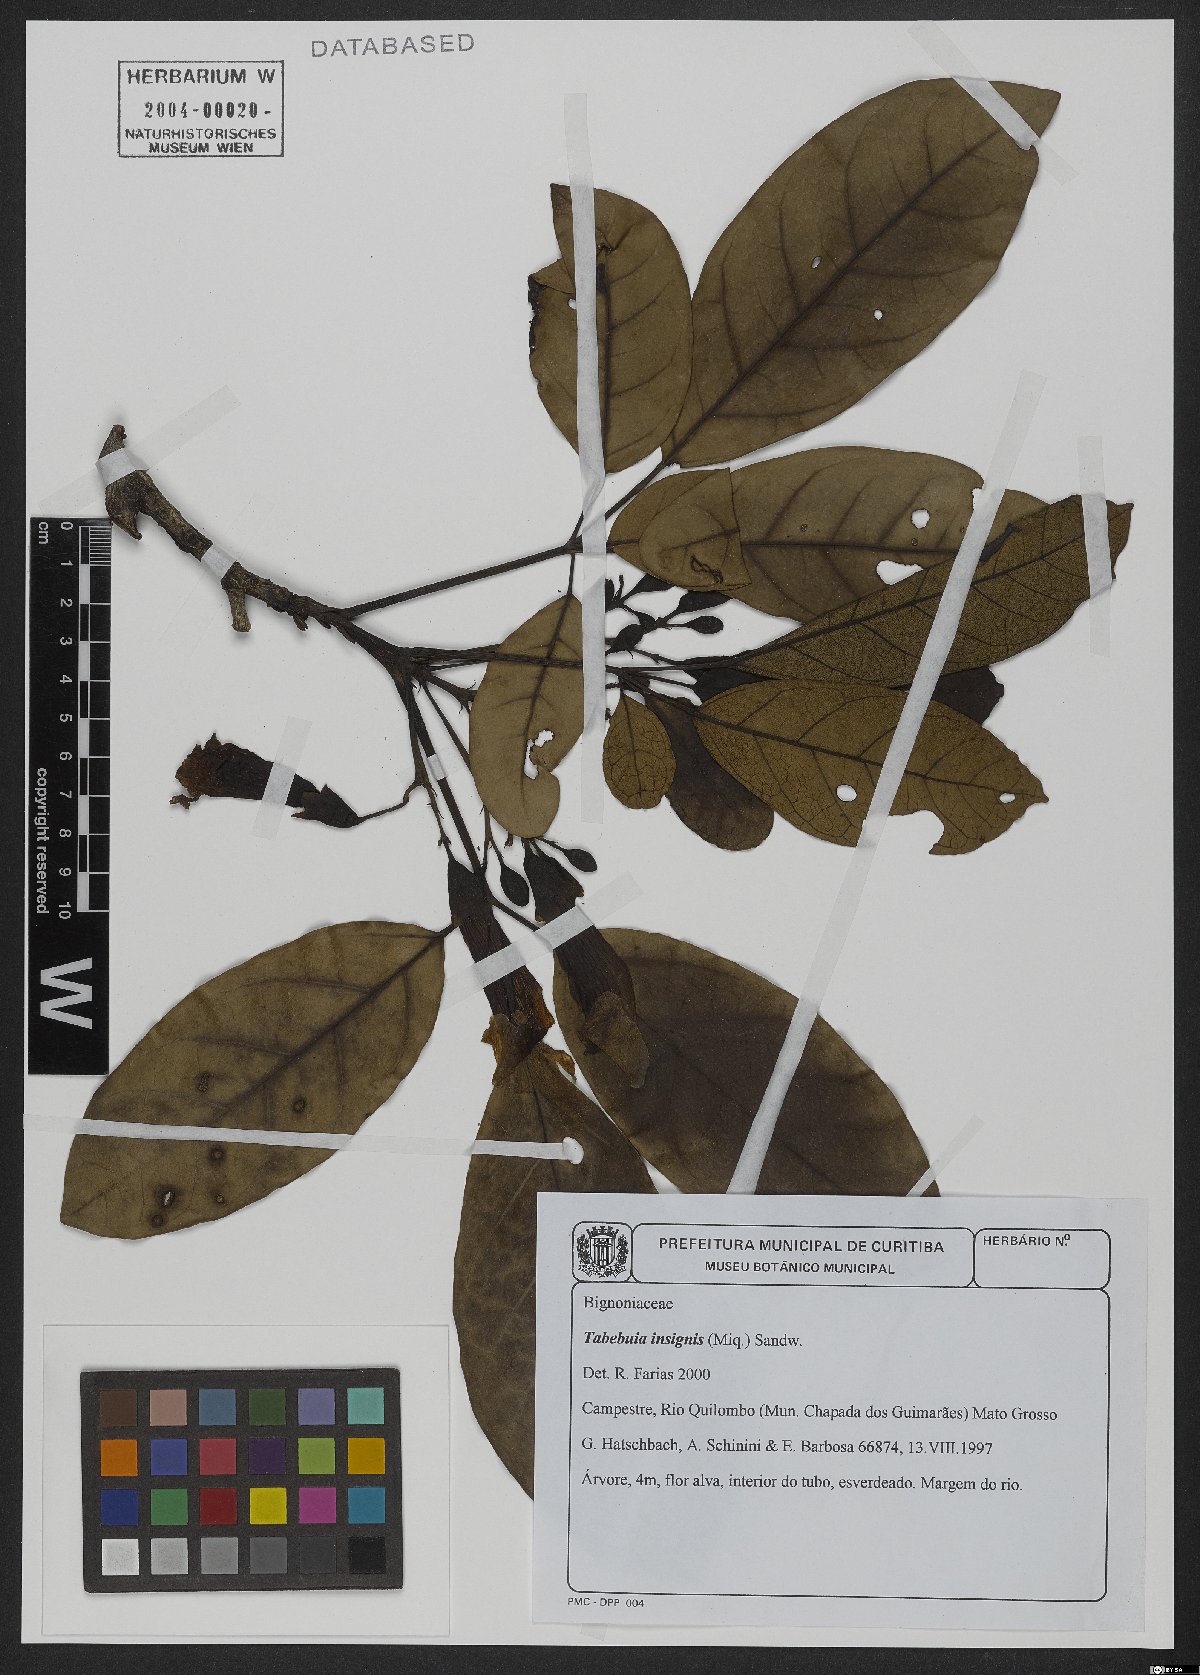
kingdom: Plantae
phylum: Tracheophyta
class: Magnoliopsida
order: Lamiales
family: Bignoniaceae
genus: Tabebuia
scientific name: Tabebuia insignis
